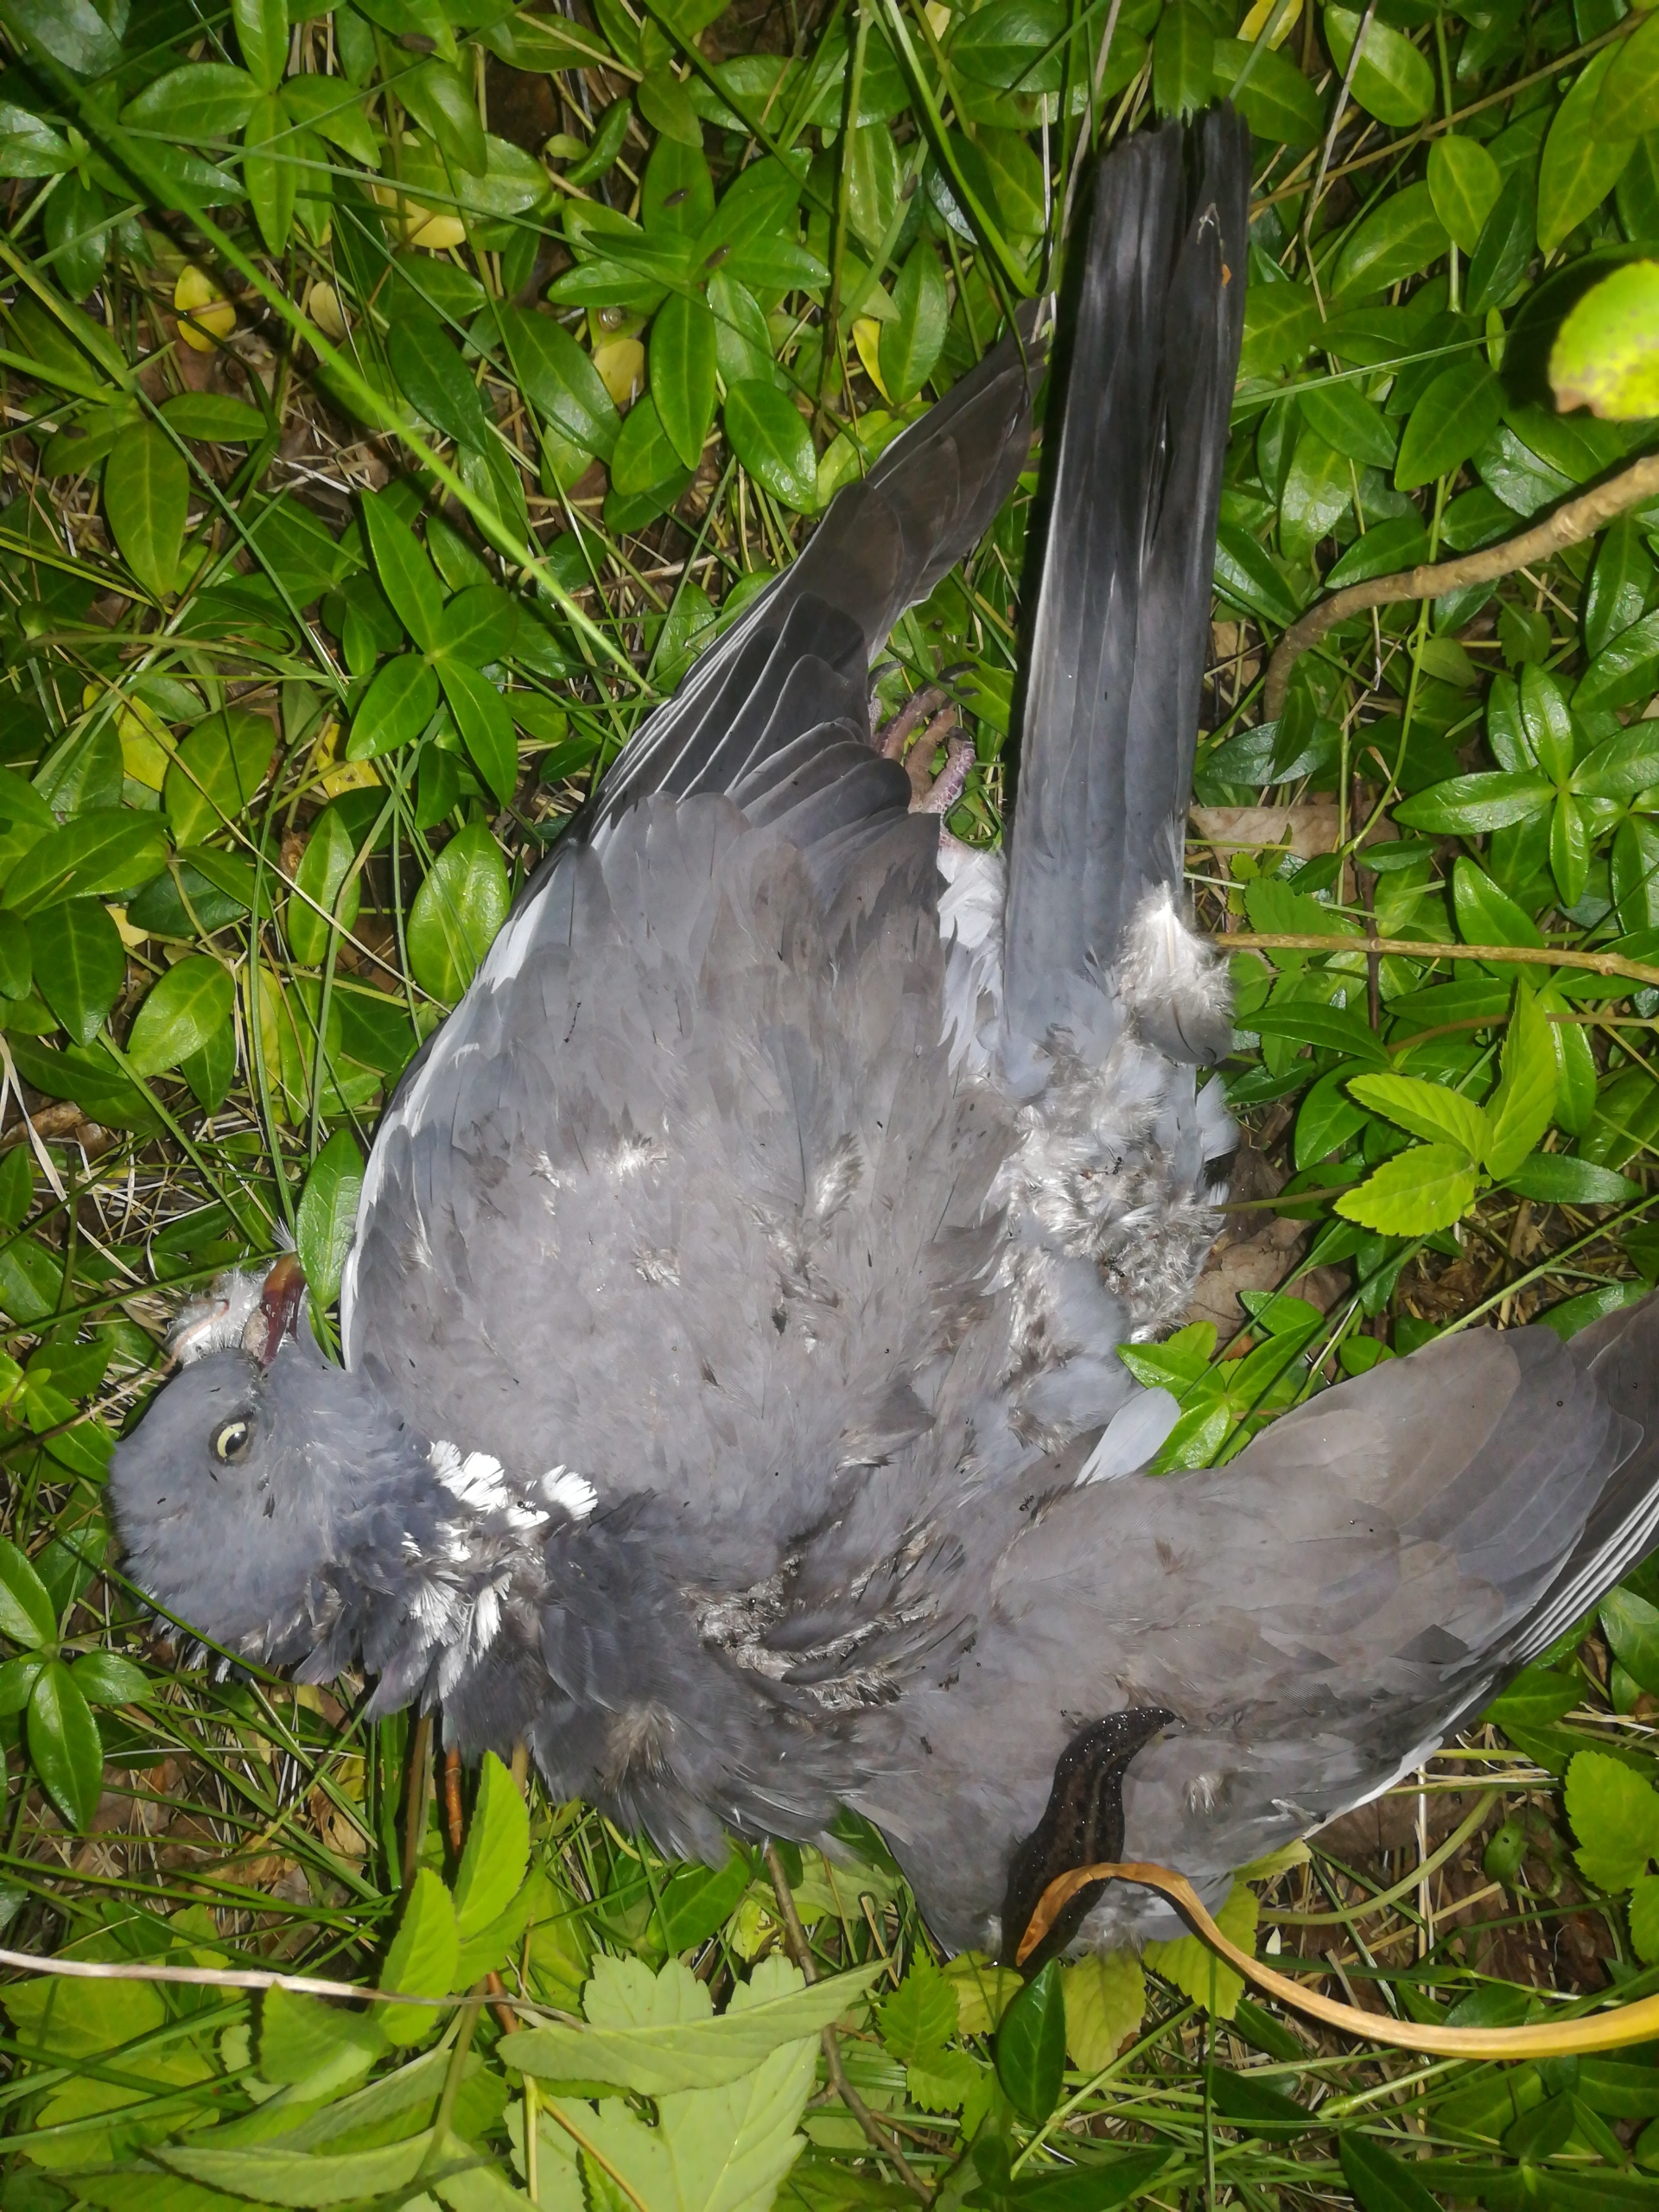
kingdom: Animalia
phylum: Chordata
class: Aves
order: Columbiformes
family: Columbidae
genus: Columba
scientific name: Columba palumbus
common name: Ringdue
